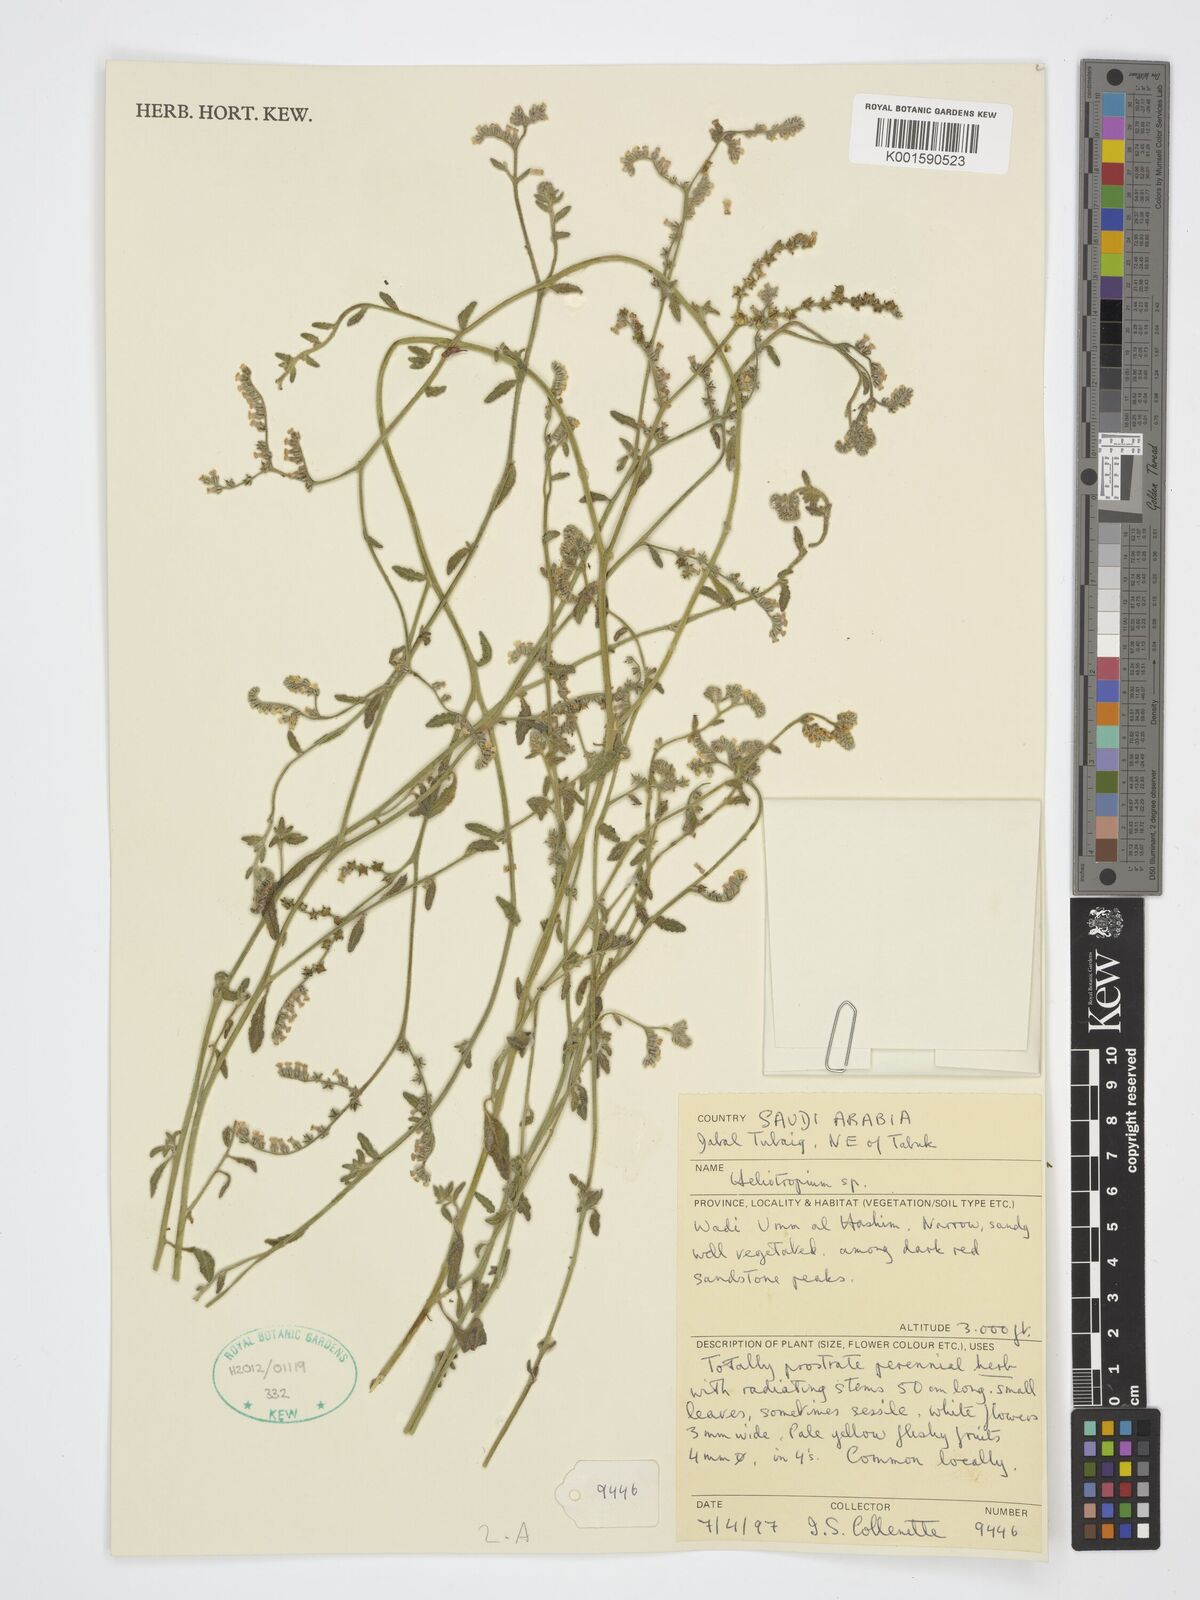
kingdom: Plantae
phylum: Tracheophyta
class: Magnoliopsida
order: Boraginales
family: Heliotropiaceae
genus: Heliotropium
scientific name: Heliotropium
